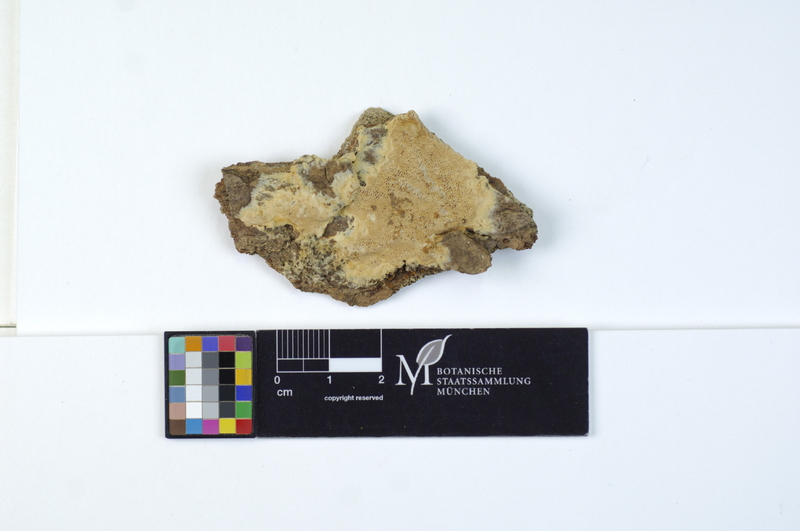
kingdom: Fungi
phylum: Basidiomycota
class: Agaricomycetes
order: Hymenochaetales
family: Oxyporaceae
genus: Oxyporus
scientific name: Oxyporus obducens
